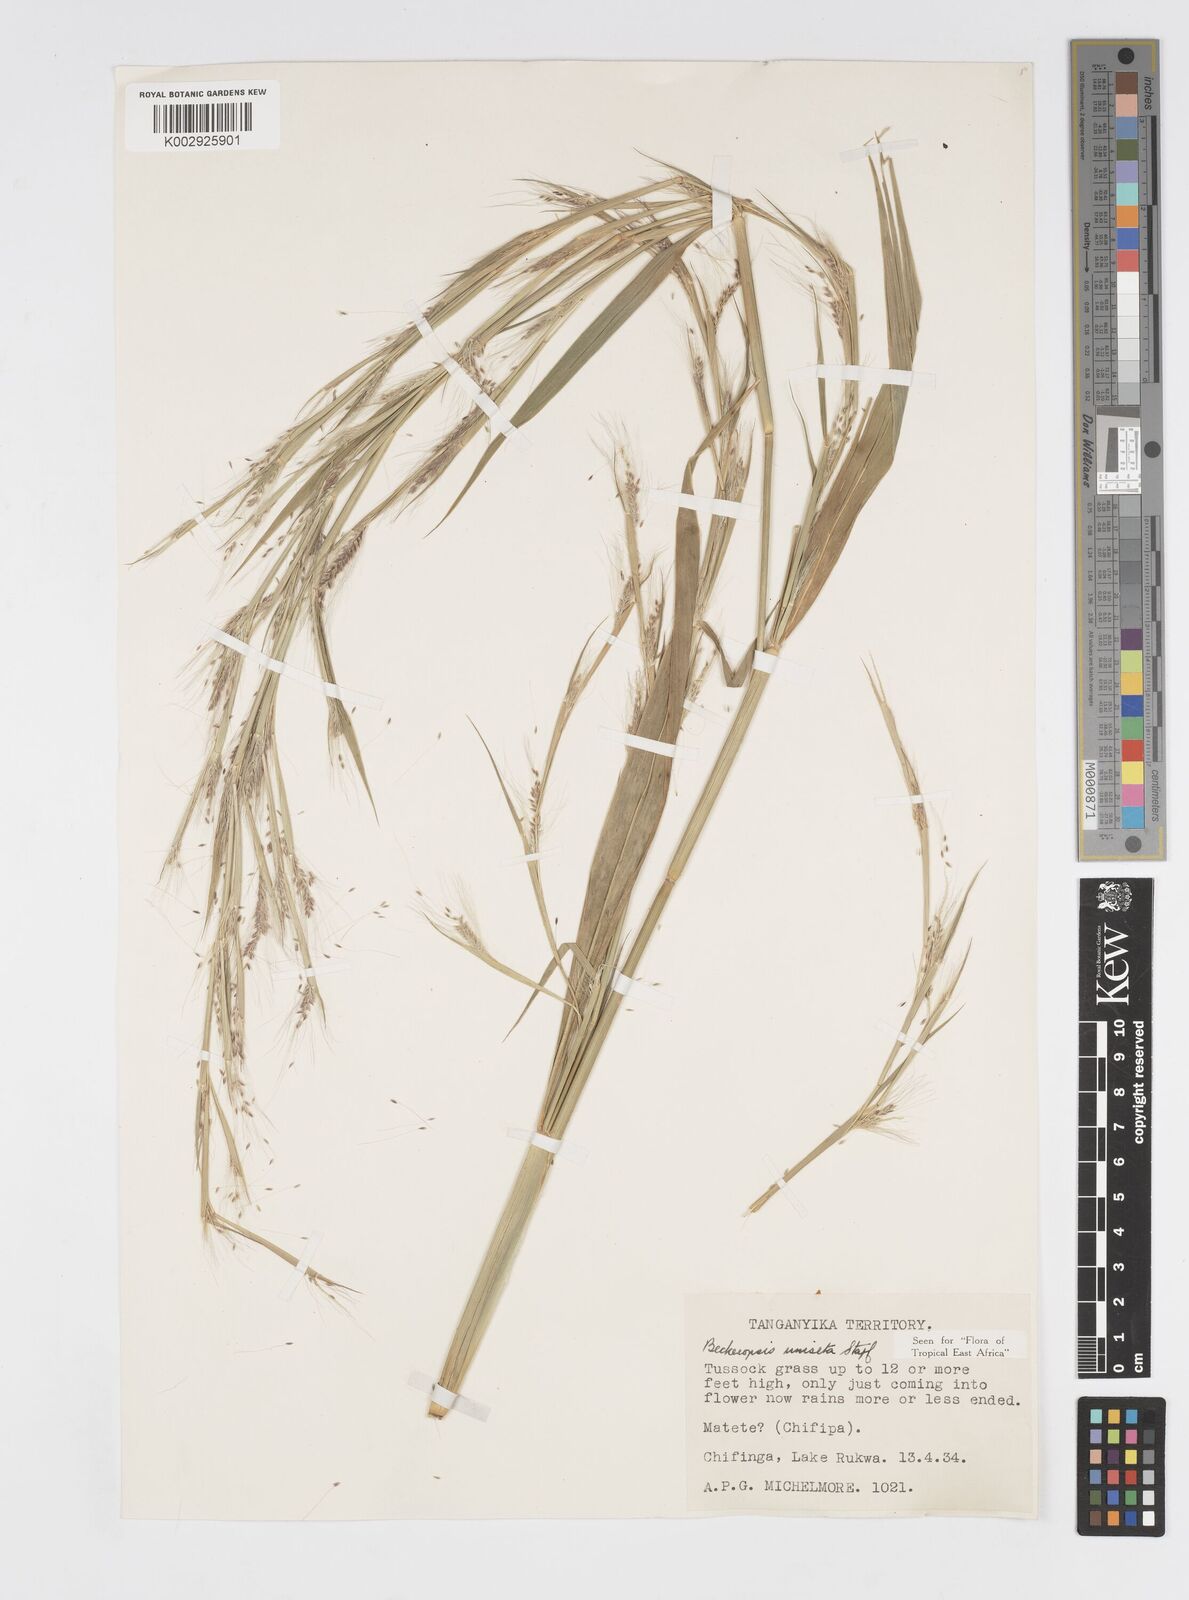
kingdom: Plantae
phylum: Tracheophyta
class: Liliopsida
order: Poales
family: Poaceae
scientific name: Poaceae
